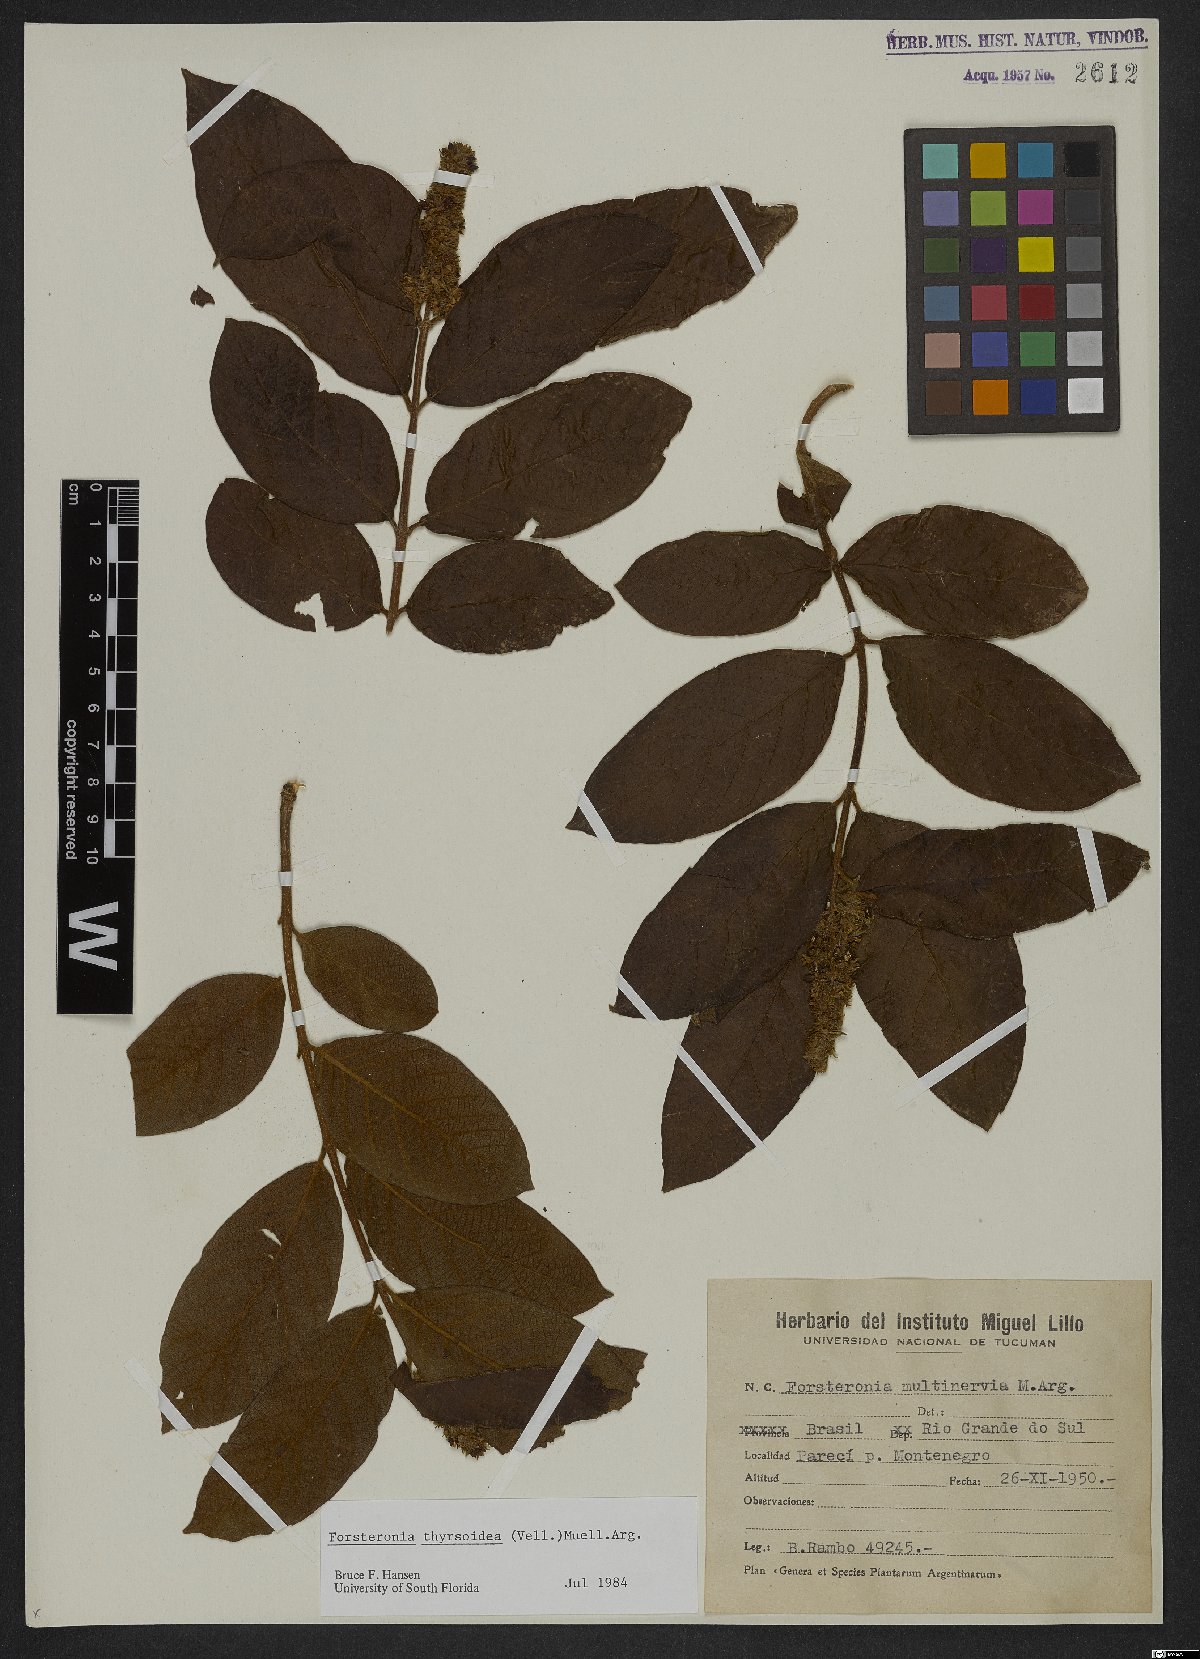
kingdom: Plantae
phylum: Tracheophyta
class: Magnoliopsida
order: Gentianales
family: Apocynaceae
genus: Forsteronia
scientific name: Forsteronia thyrsoidea
